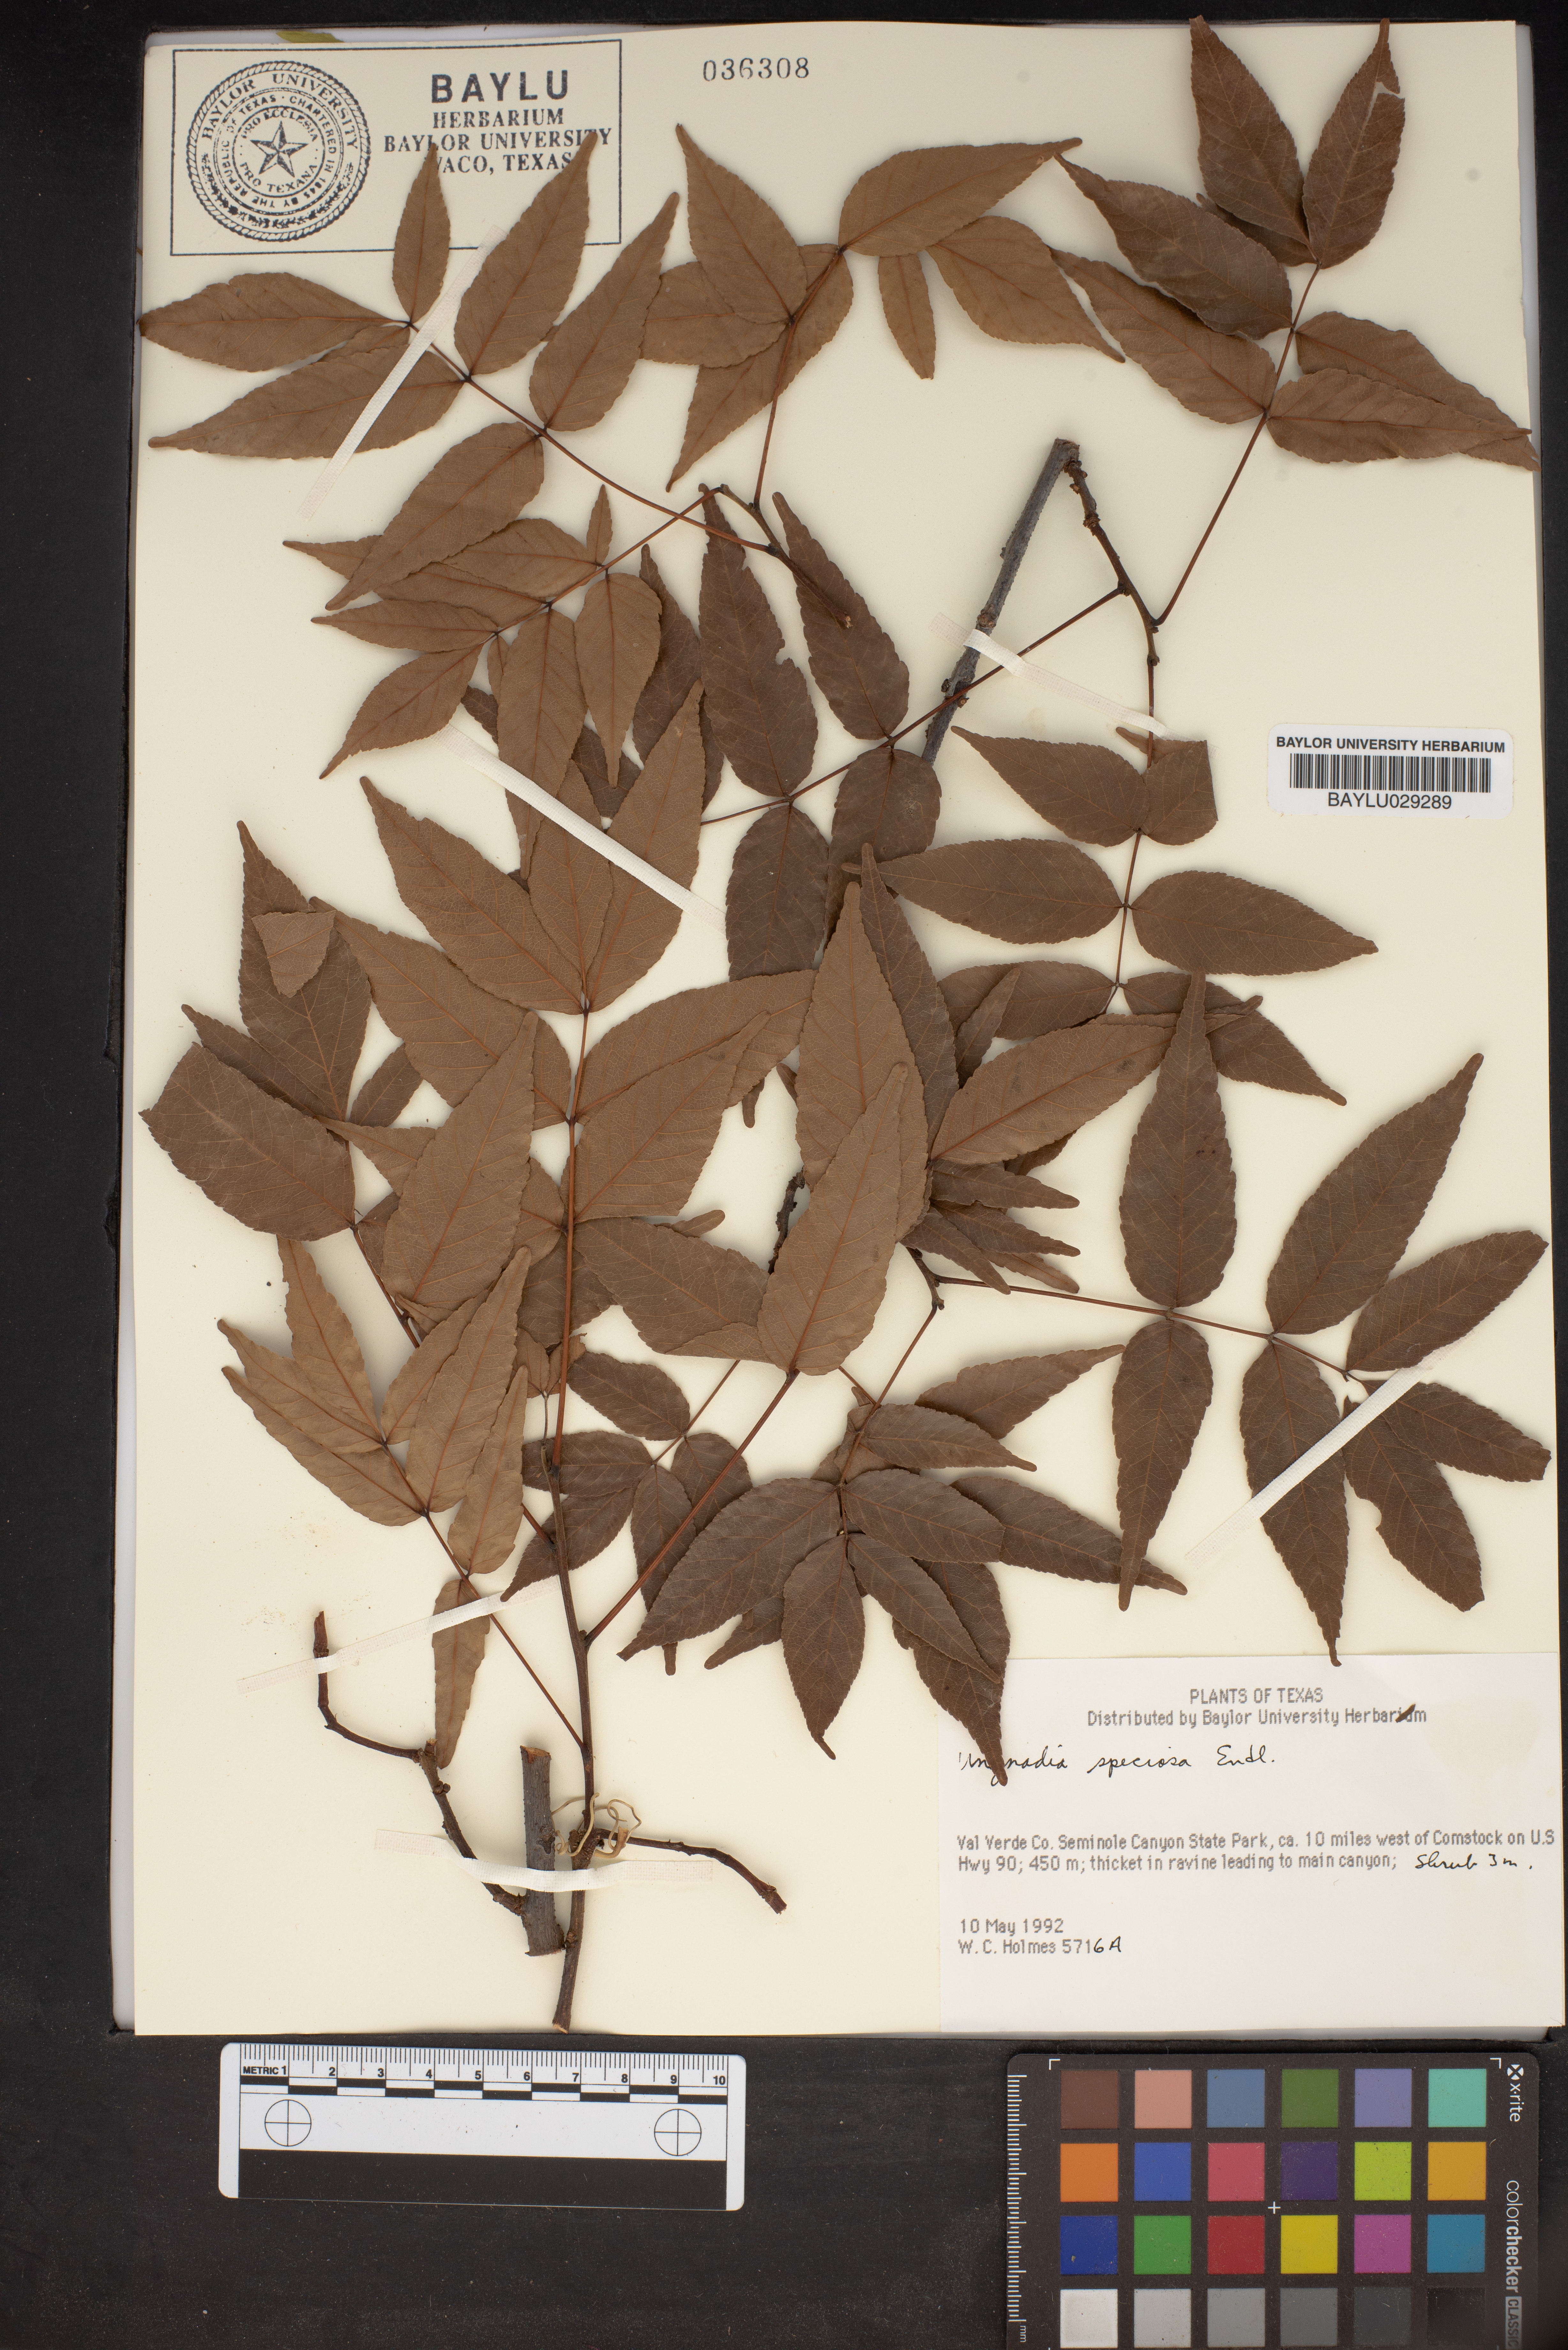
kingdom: Plantae
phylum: Tracheophyta
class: Magnoliopsida
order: Sapindales
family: Sapindaceae
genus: Ungnadia
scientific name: Ungnadia speciosa
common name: Texas-buckeye
